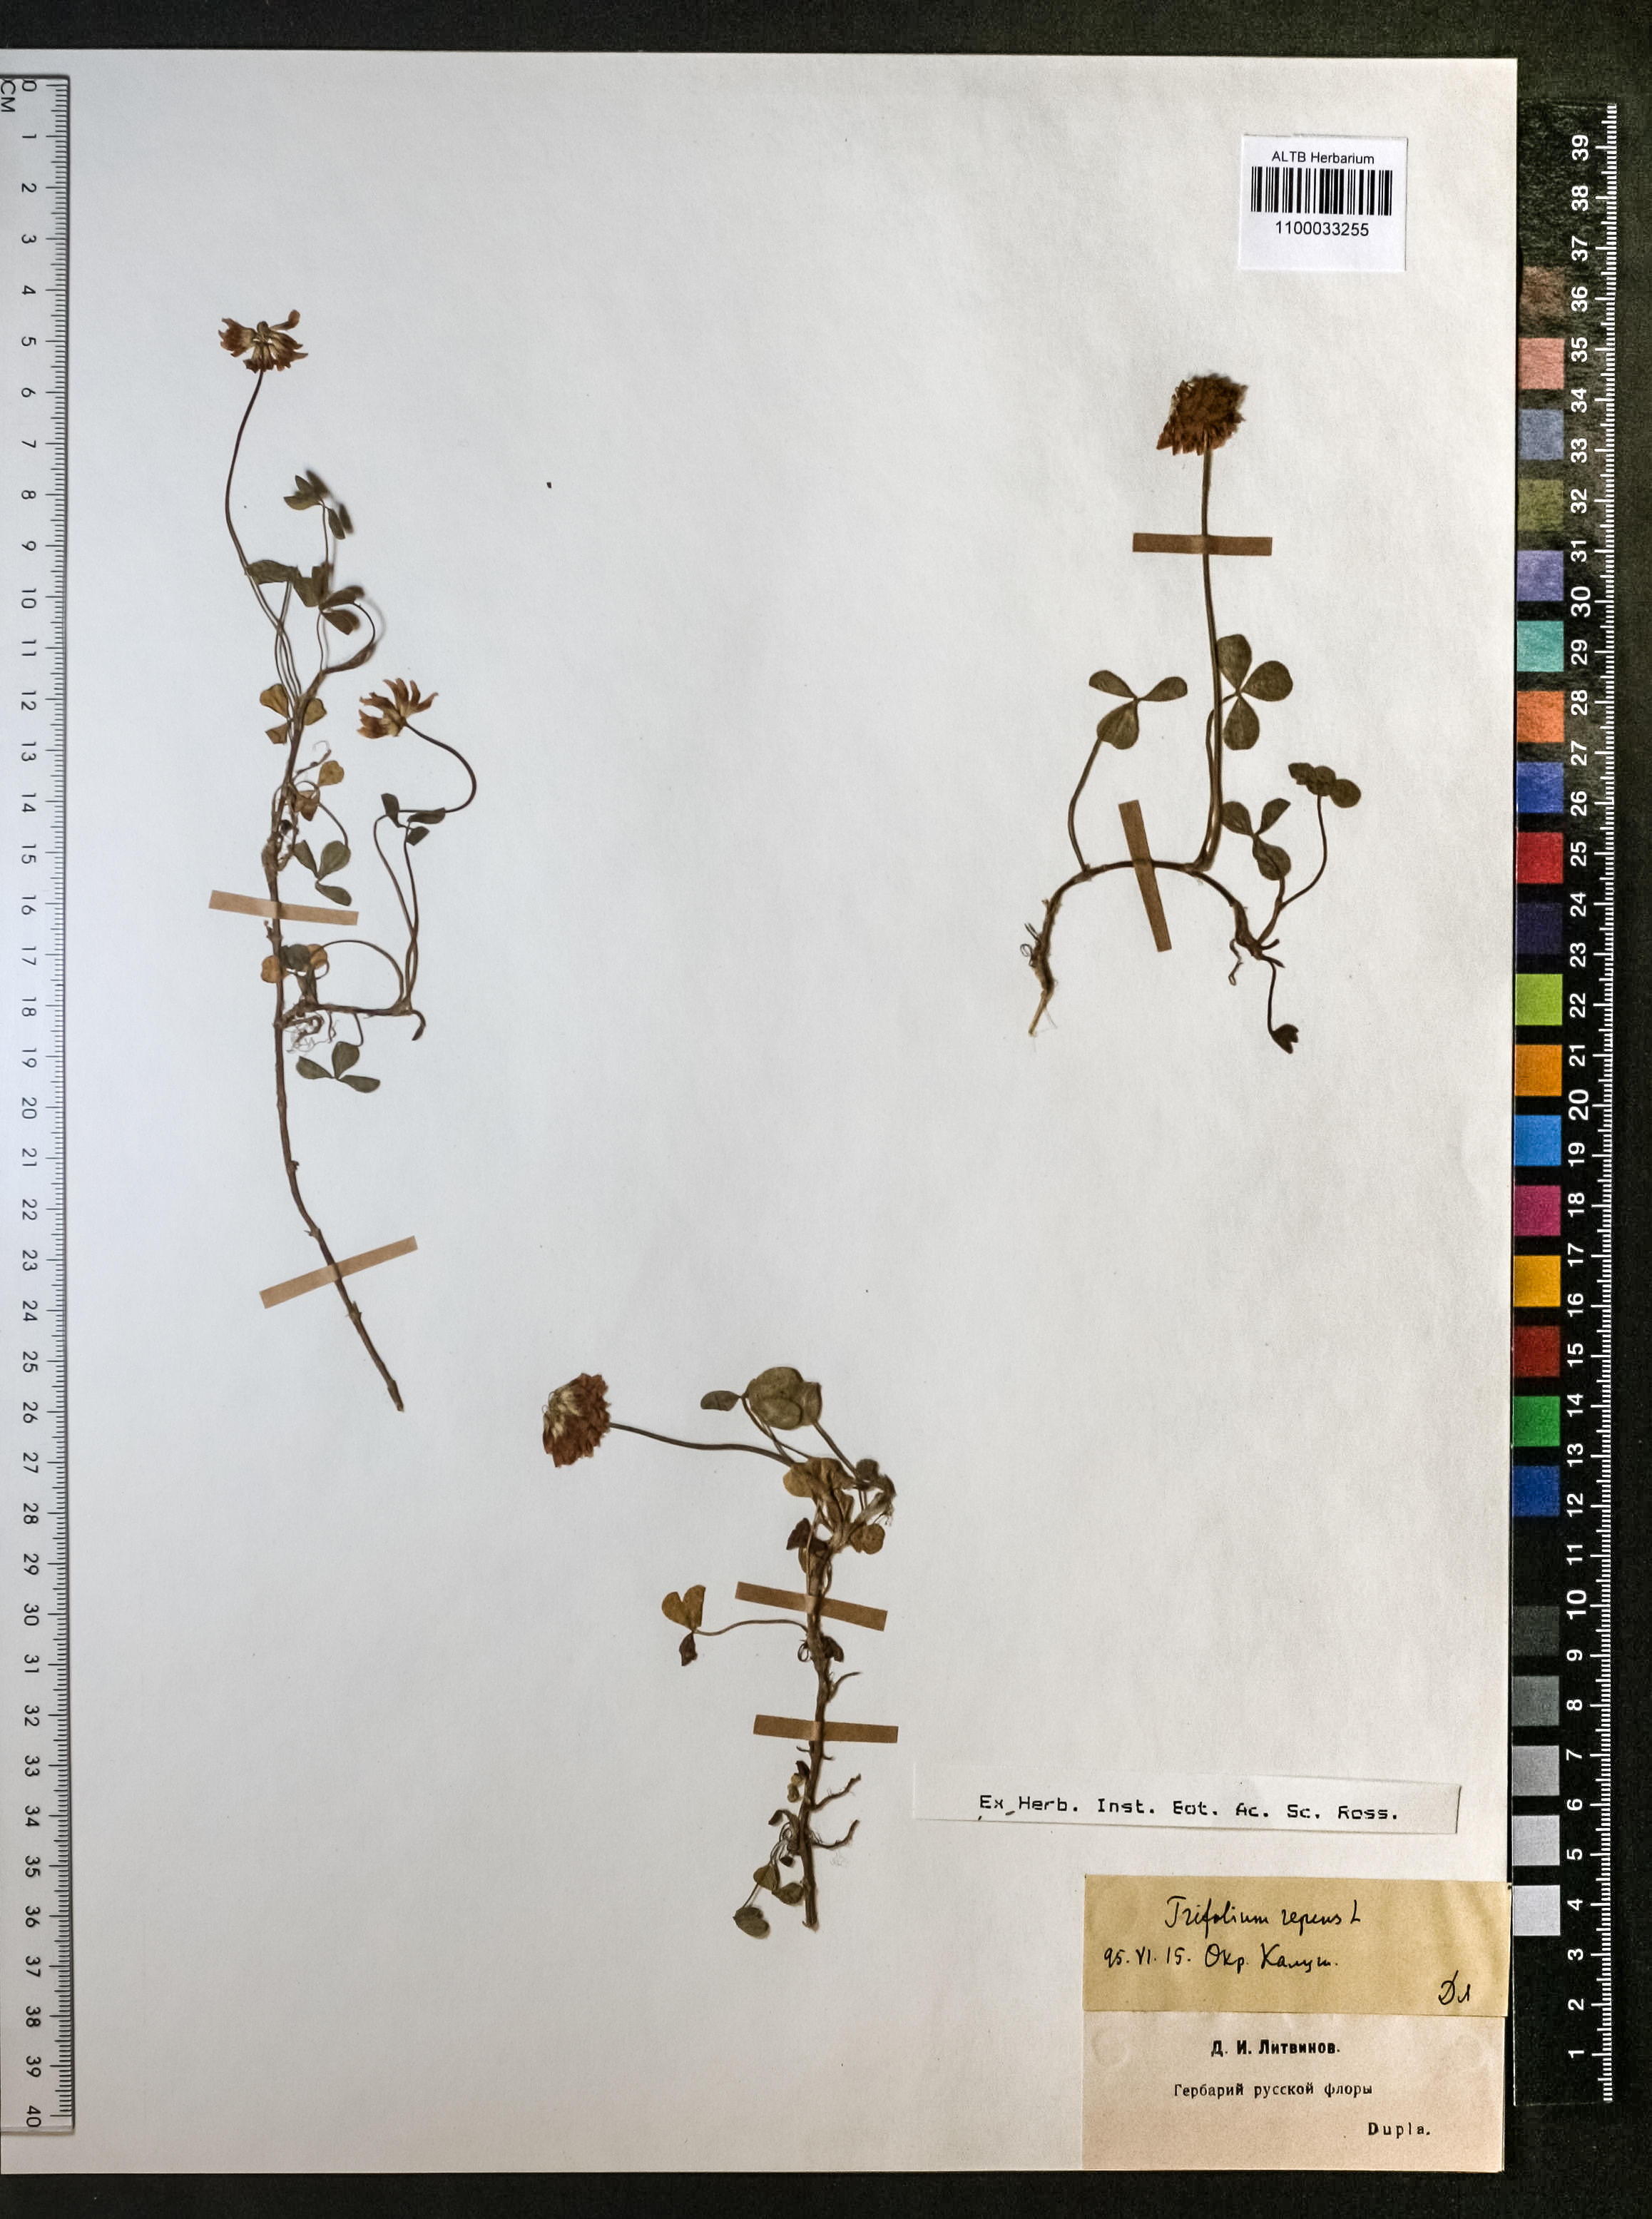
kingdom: Plantae
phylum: Tracheophyta
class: Magnoliopsida
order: Fabales
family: Fabaceae
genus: Trifolium
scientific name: Trifolium repens
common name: White clover
